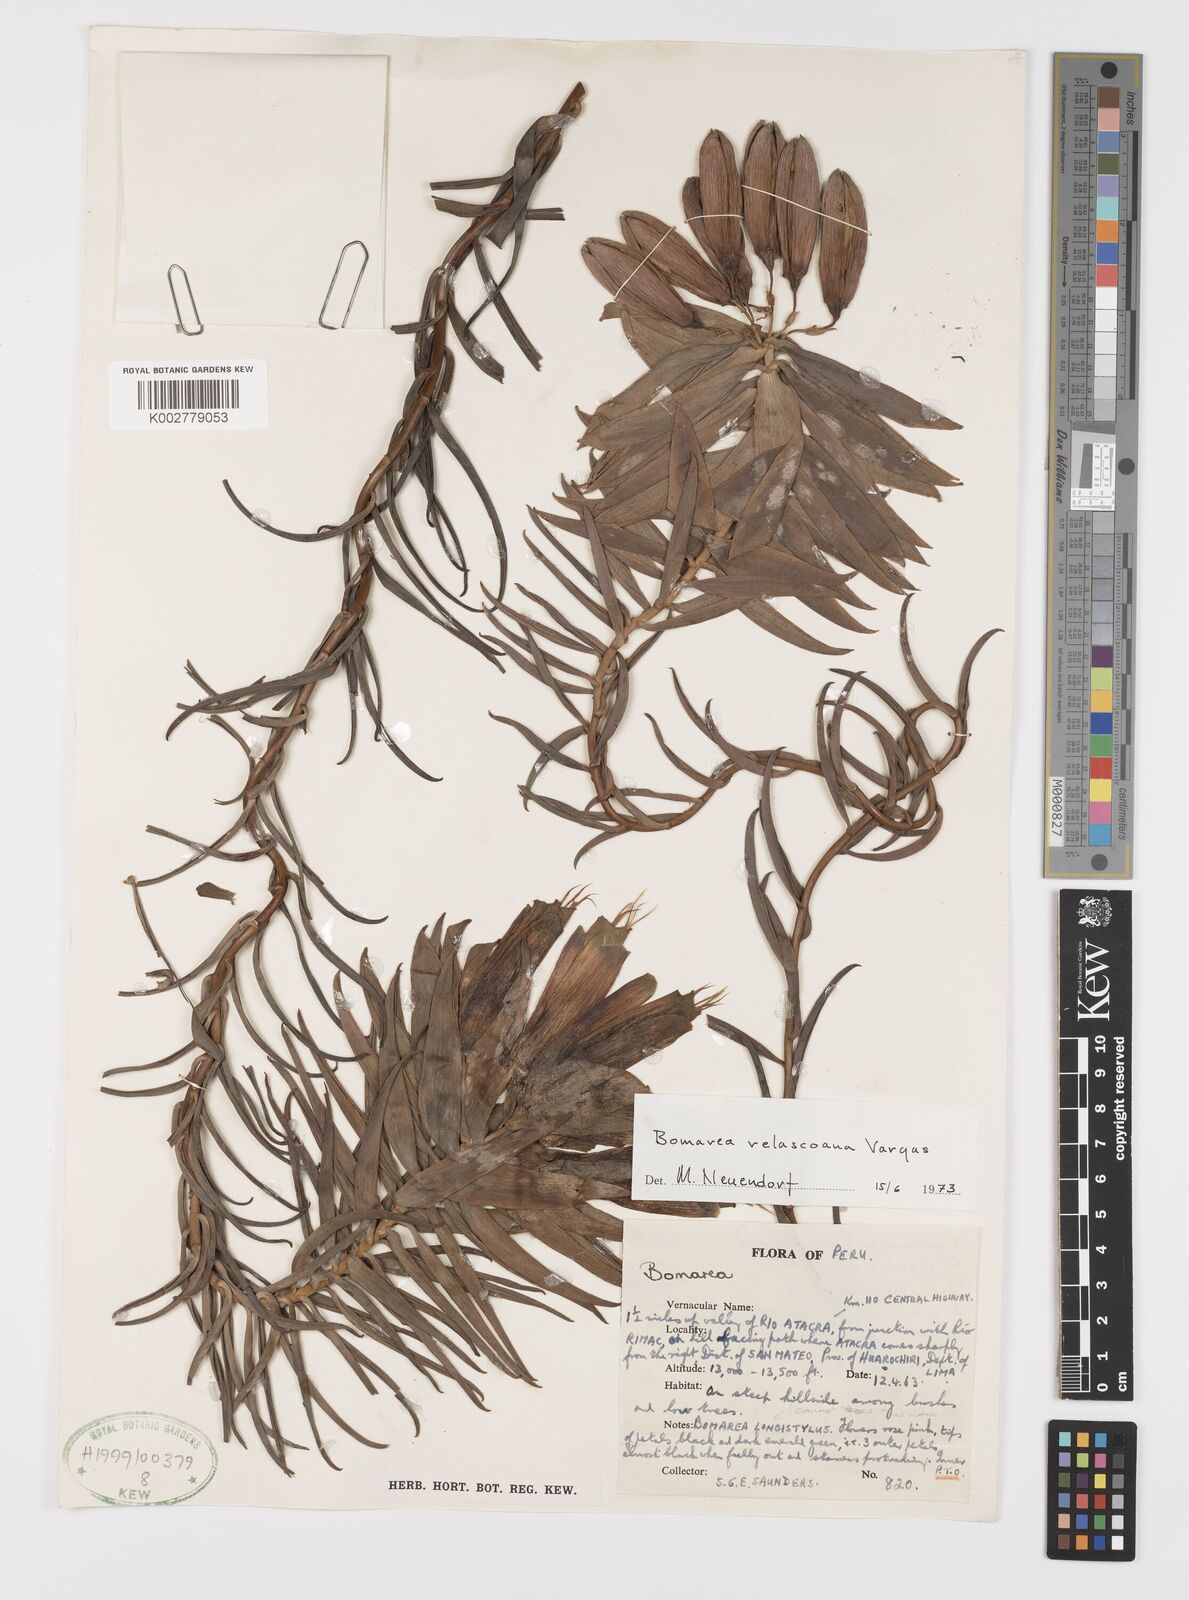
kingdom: Plantae
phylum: Tracheophyta
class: Liliopsida
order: Liliales
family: Alstroemeriaceae
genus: Bomarea
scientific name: Bomarea velascoana
